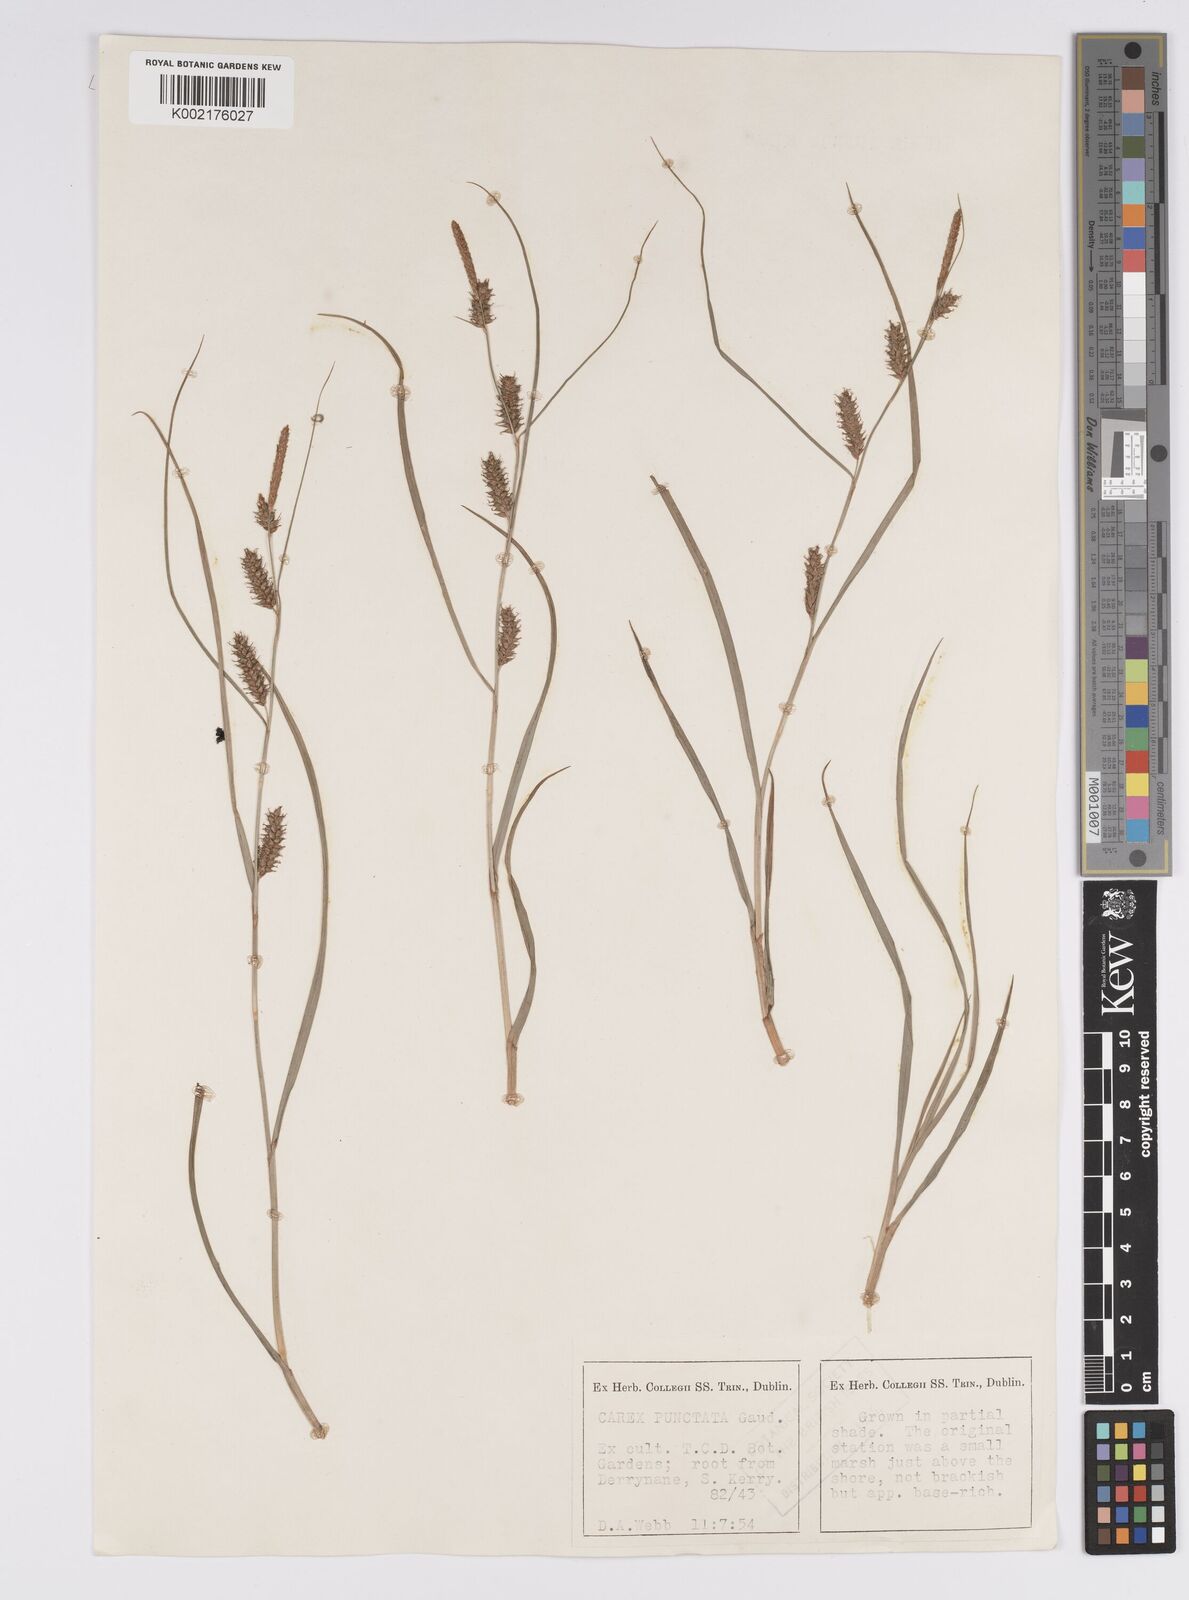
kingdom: Plantae
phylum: Tracheophyta
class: Liliopsida
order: Poales
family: Cyperaceae
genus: Carex
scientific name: Carex punctata
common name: Dotted sedge
